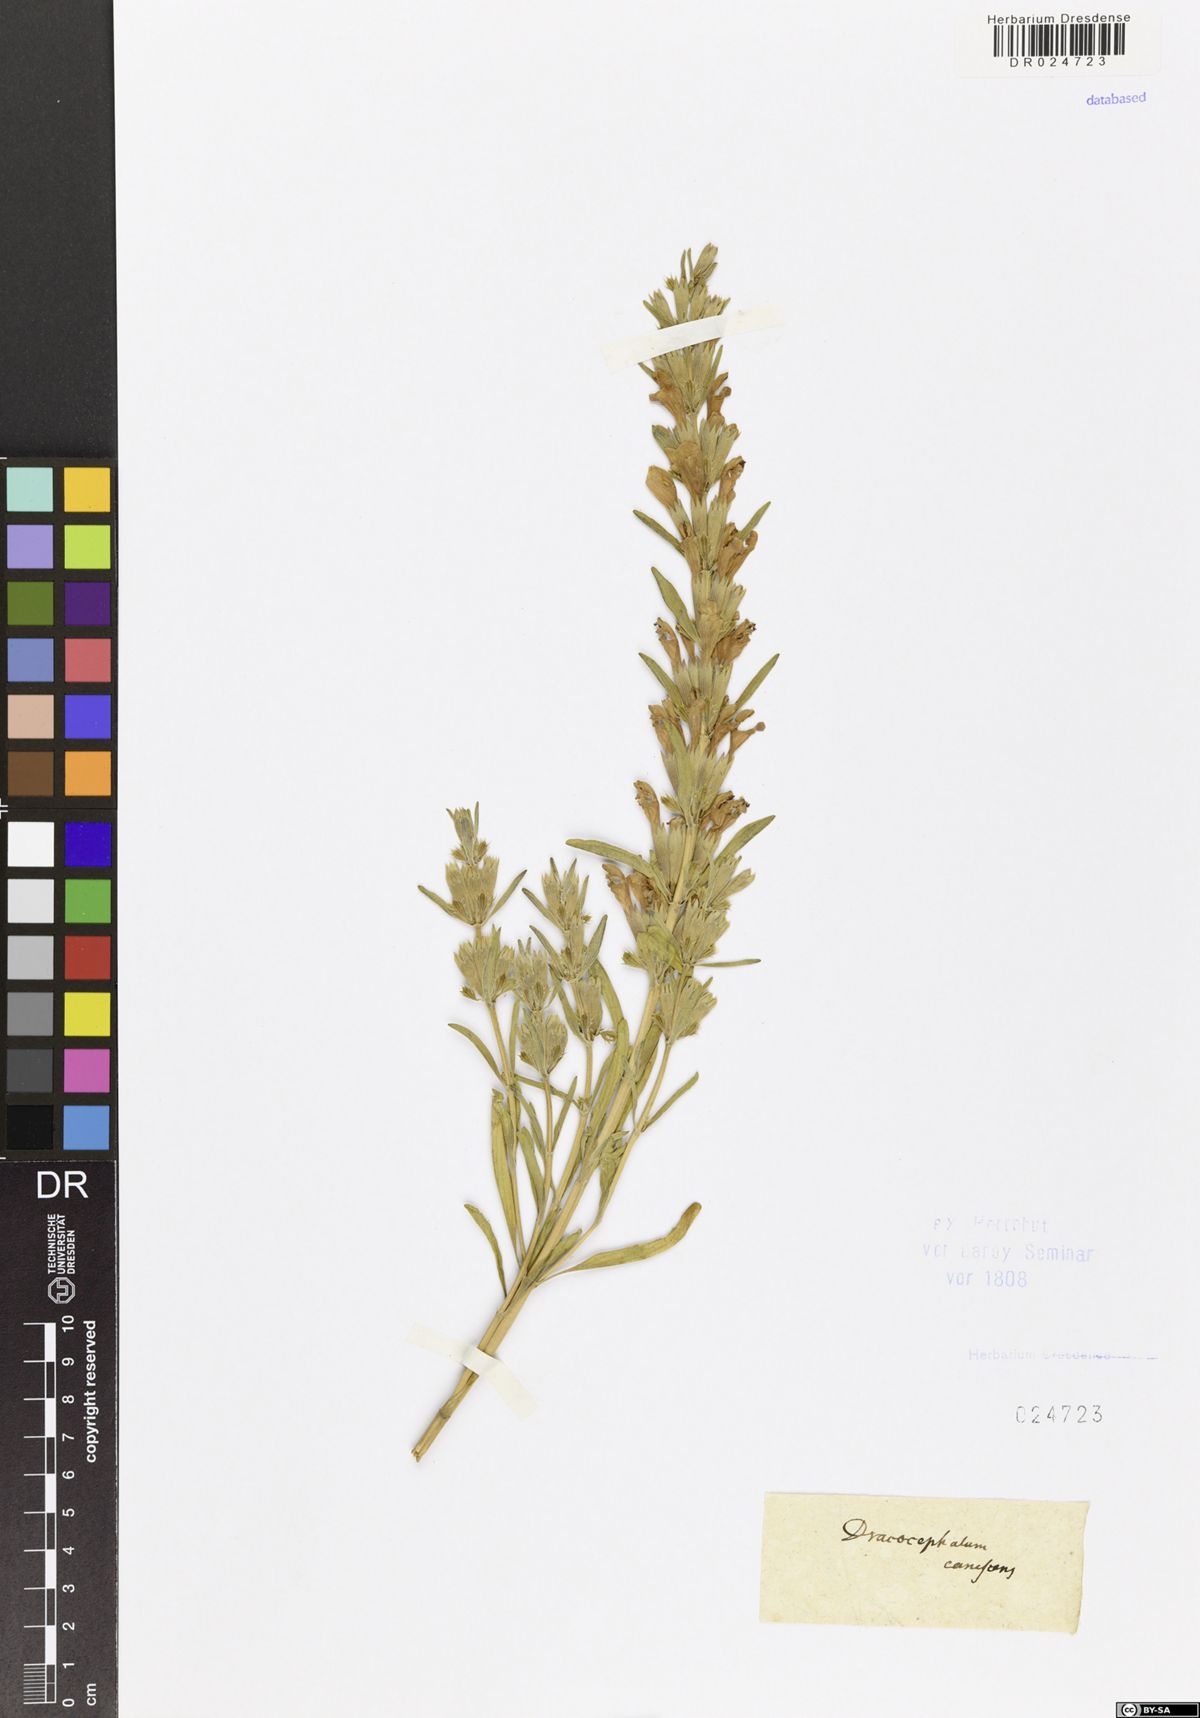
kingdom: Plantae
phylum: Tracheophyta
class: Magnoliopsida
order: Lamiales
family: Lamiaceae
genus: Lallemantia
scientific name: Lallemantia canescens
